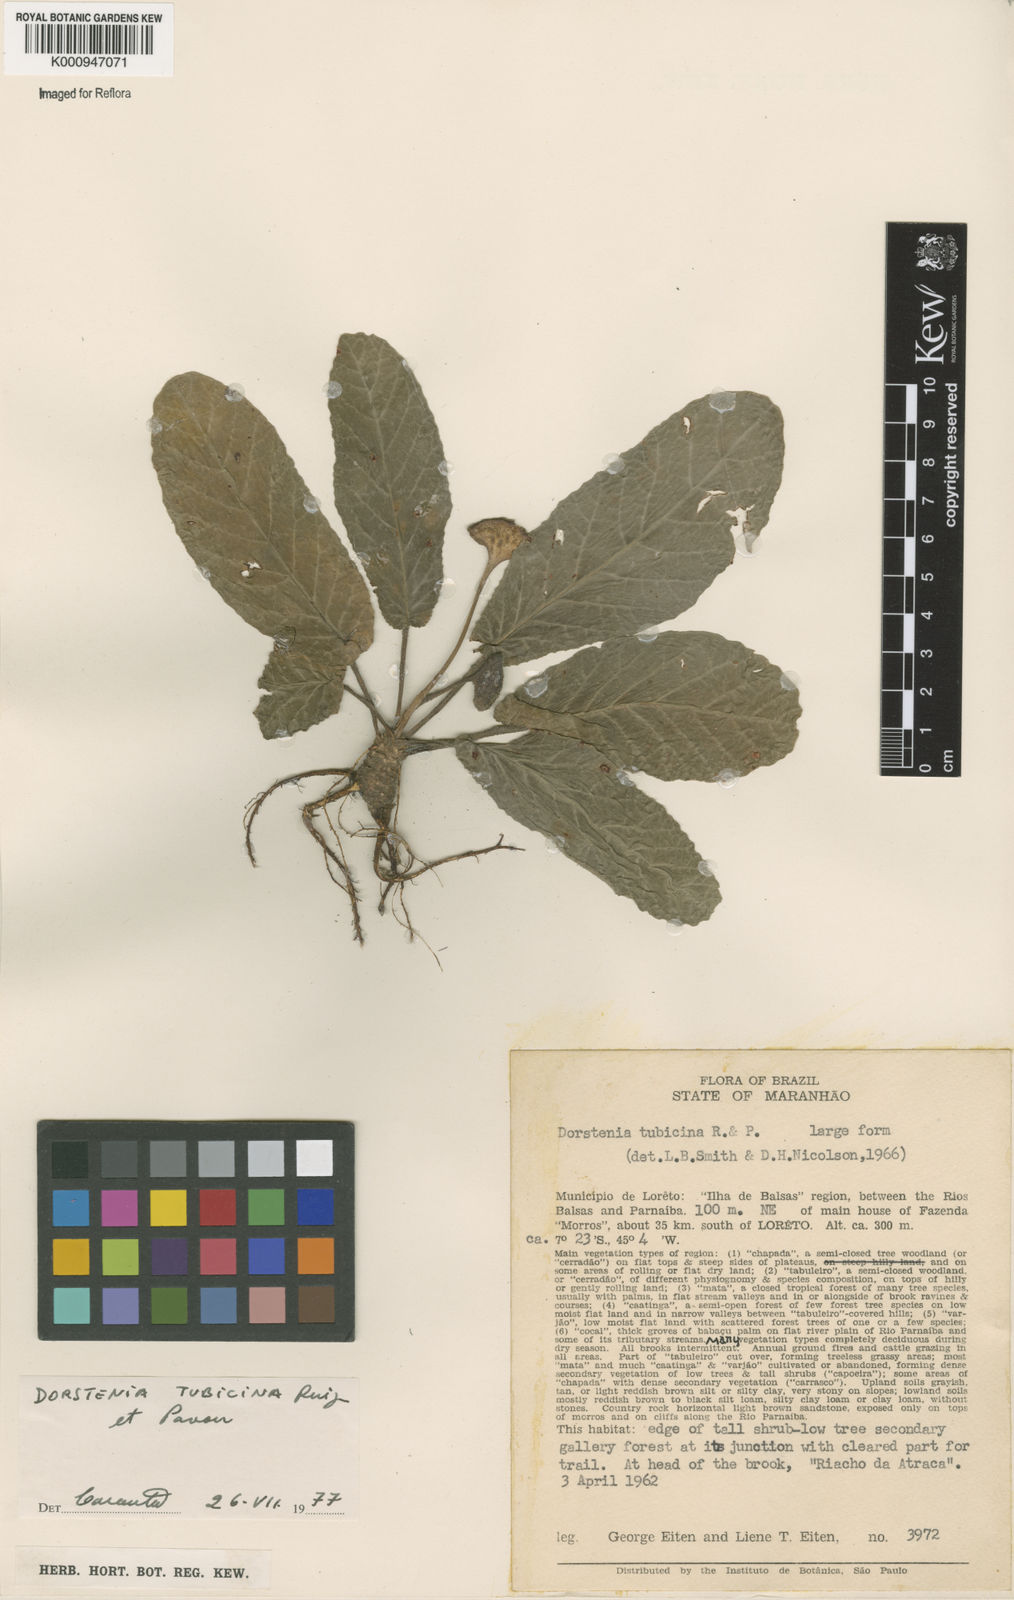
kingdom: Plantae
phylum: Tracheophyta
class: Magnoliopsida
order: Rosales
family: Moraceae
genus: Dorstenia
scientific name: Dorstenia brasiliensis
